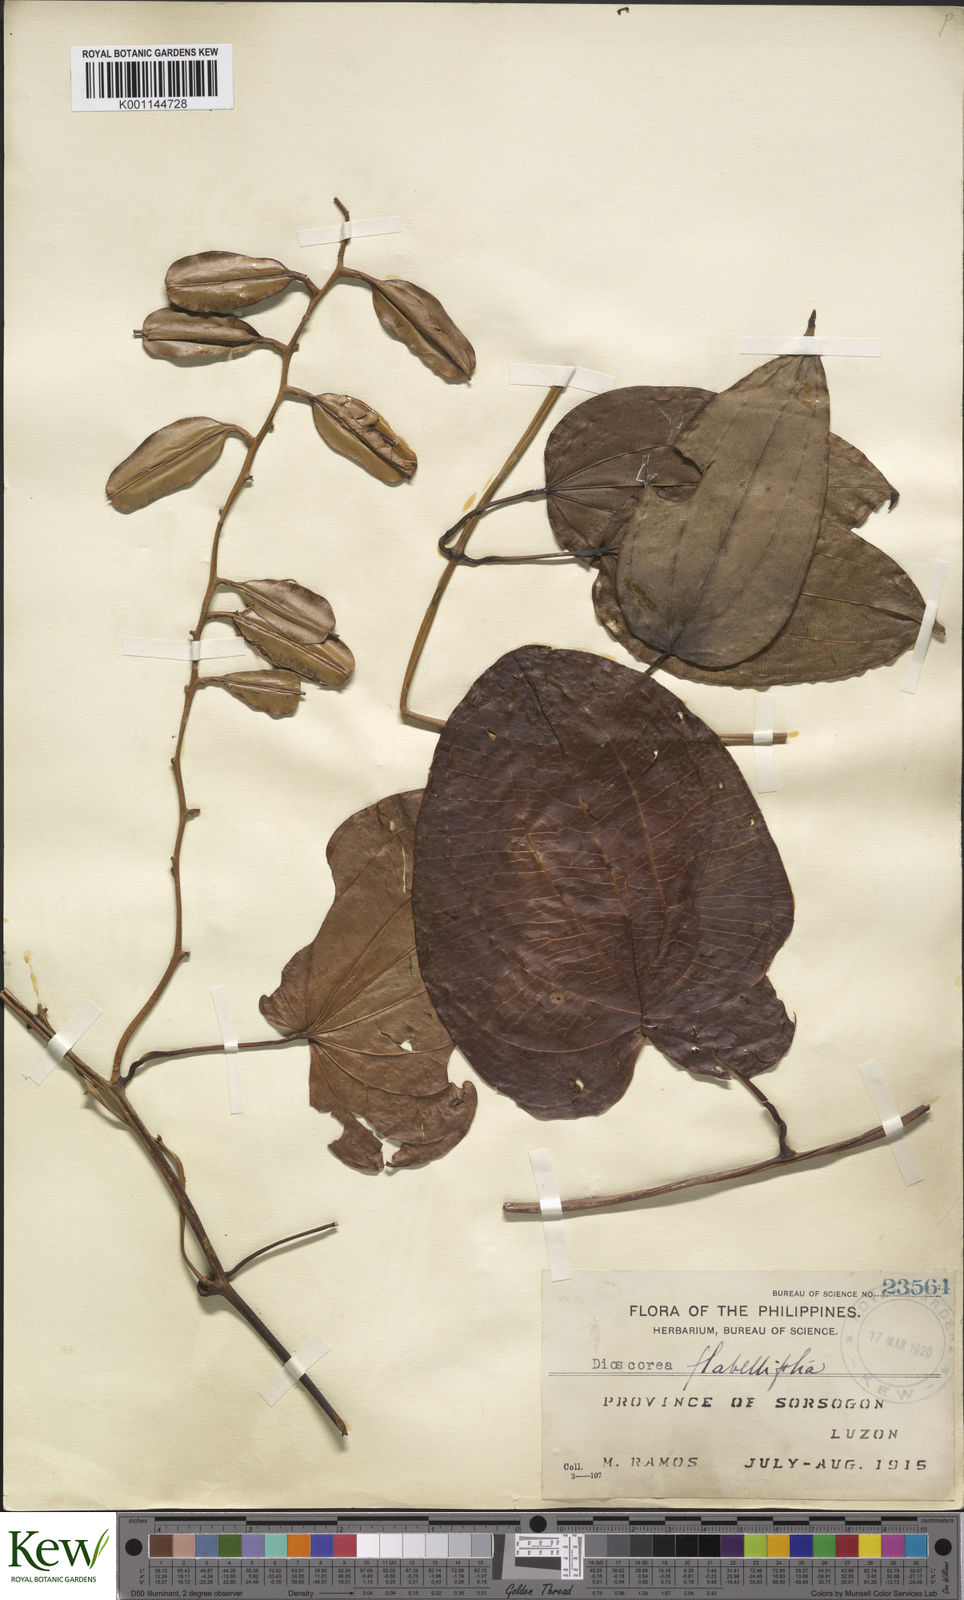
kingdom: Plantae
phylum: Tracheophyta
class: Liliopsida
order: Dioscoreales
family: Dioscoreaceae
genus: Dioscorea
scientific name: Dioscorea flabellifolia
